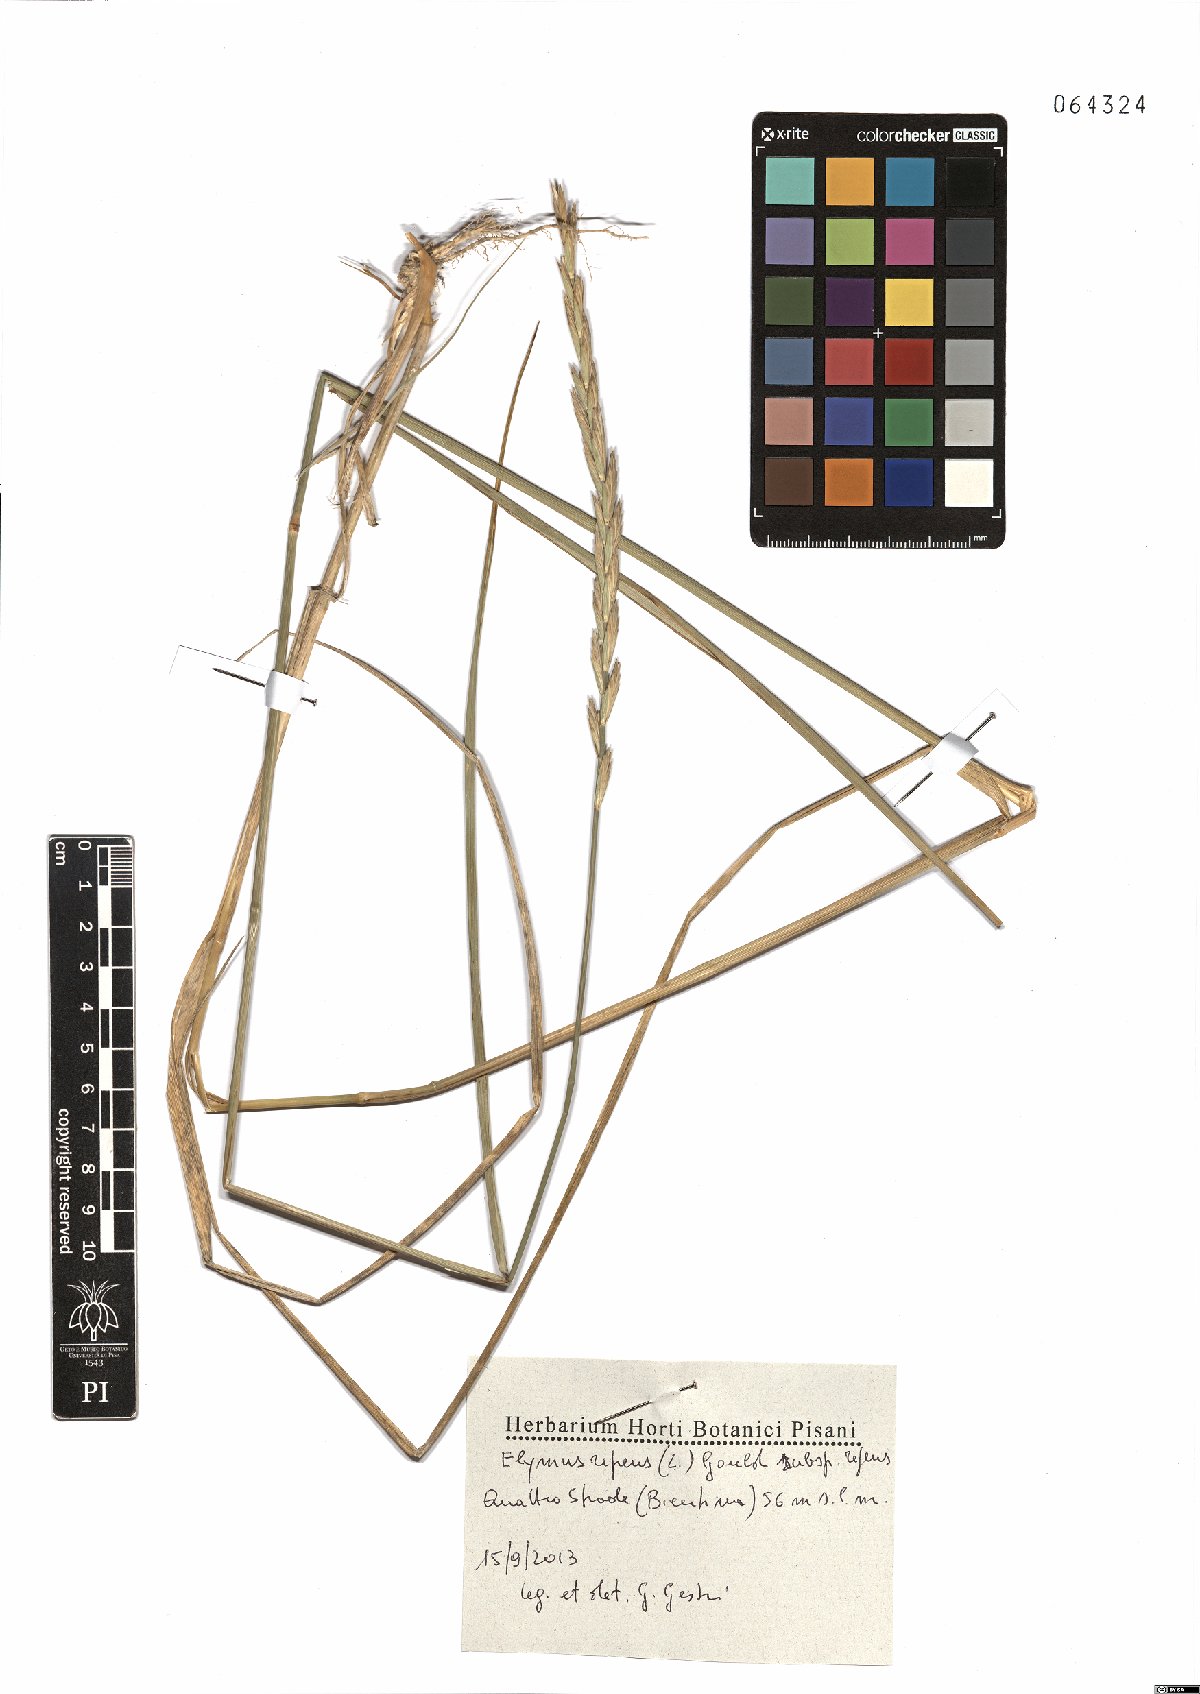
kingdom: Plantae
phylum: Tracheophyta
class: Liliopsida
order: Poales
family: Poaceae
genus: Elymus
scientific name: Elymus repens
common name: Quackgrass
